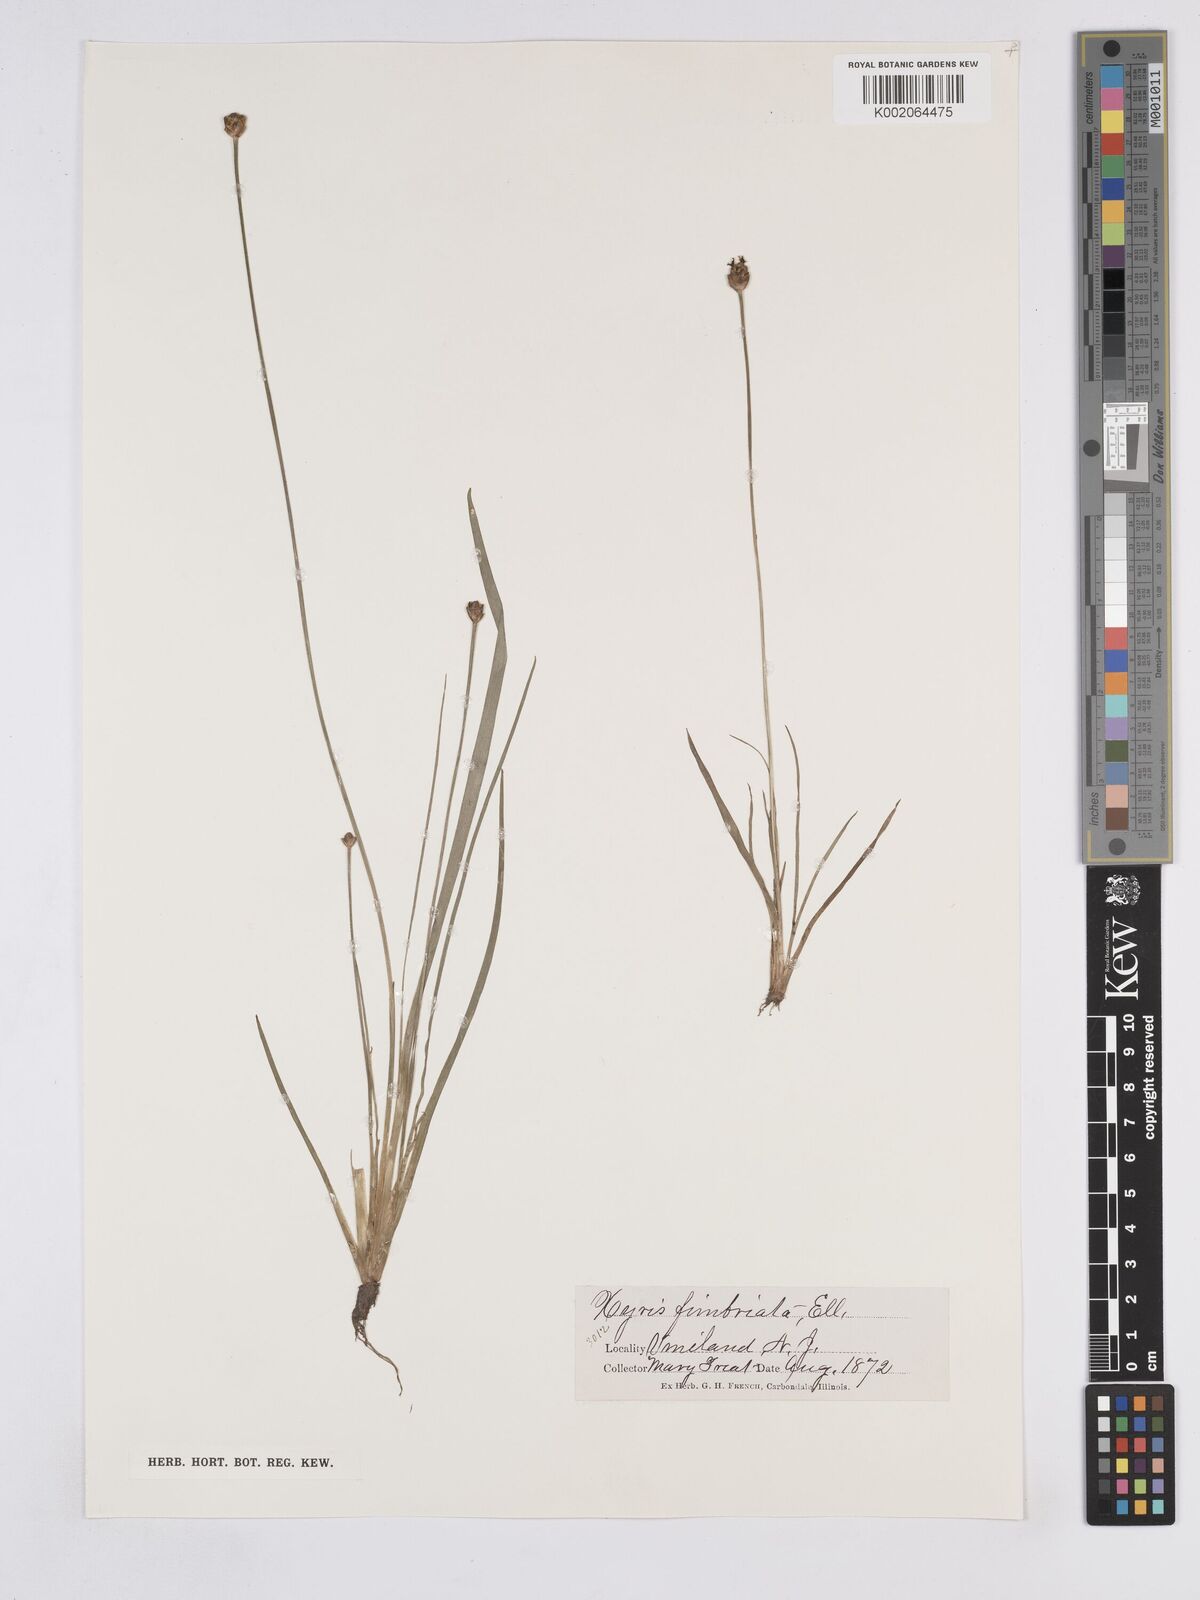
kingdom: Plantae
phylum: Tracheophyta
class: Liliopsida
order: Poales
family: Xyridaceae
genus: Xyris
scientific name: Xyris fimbriata
